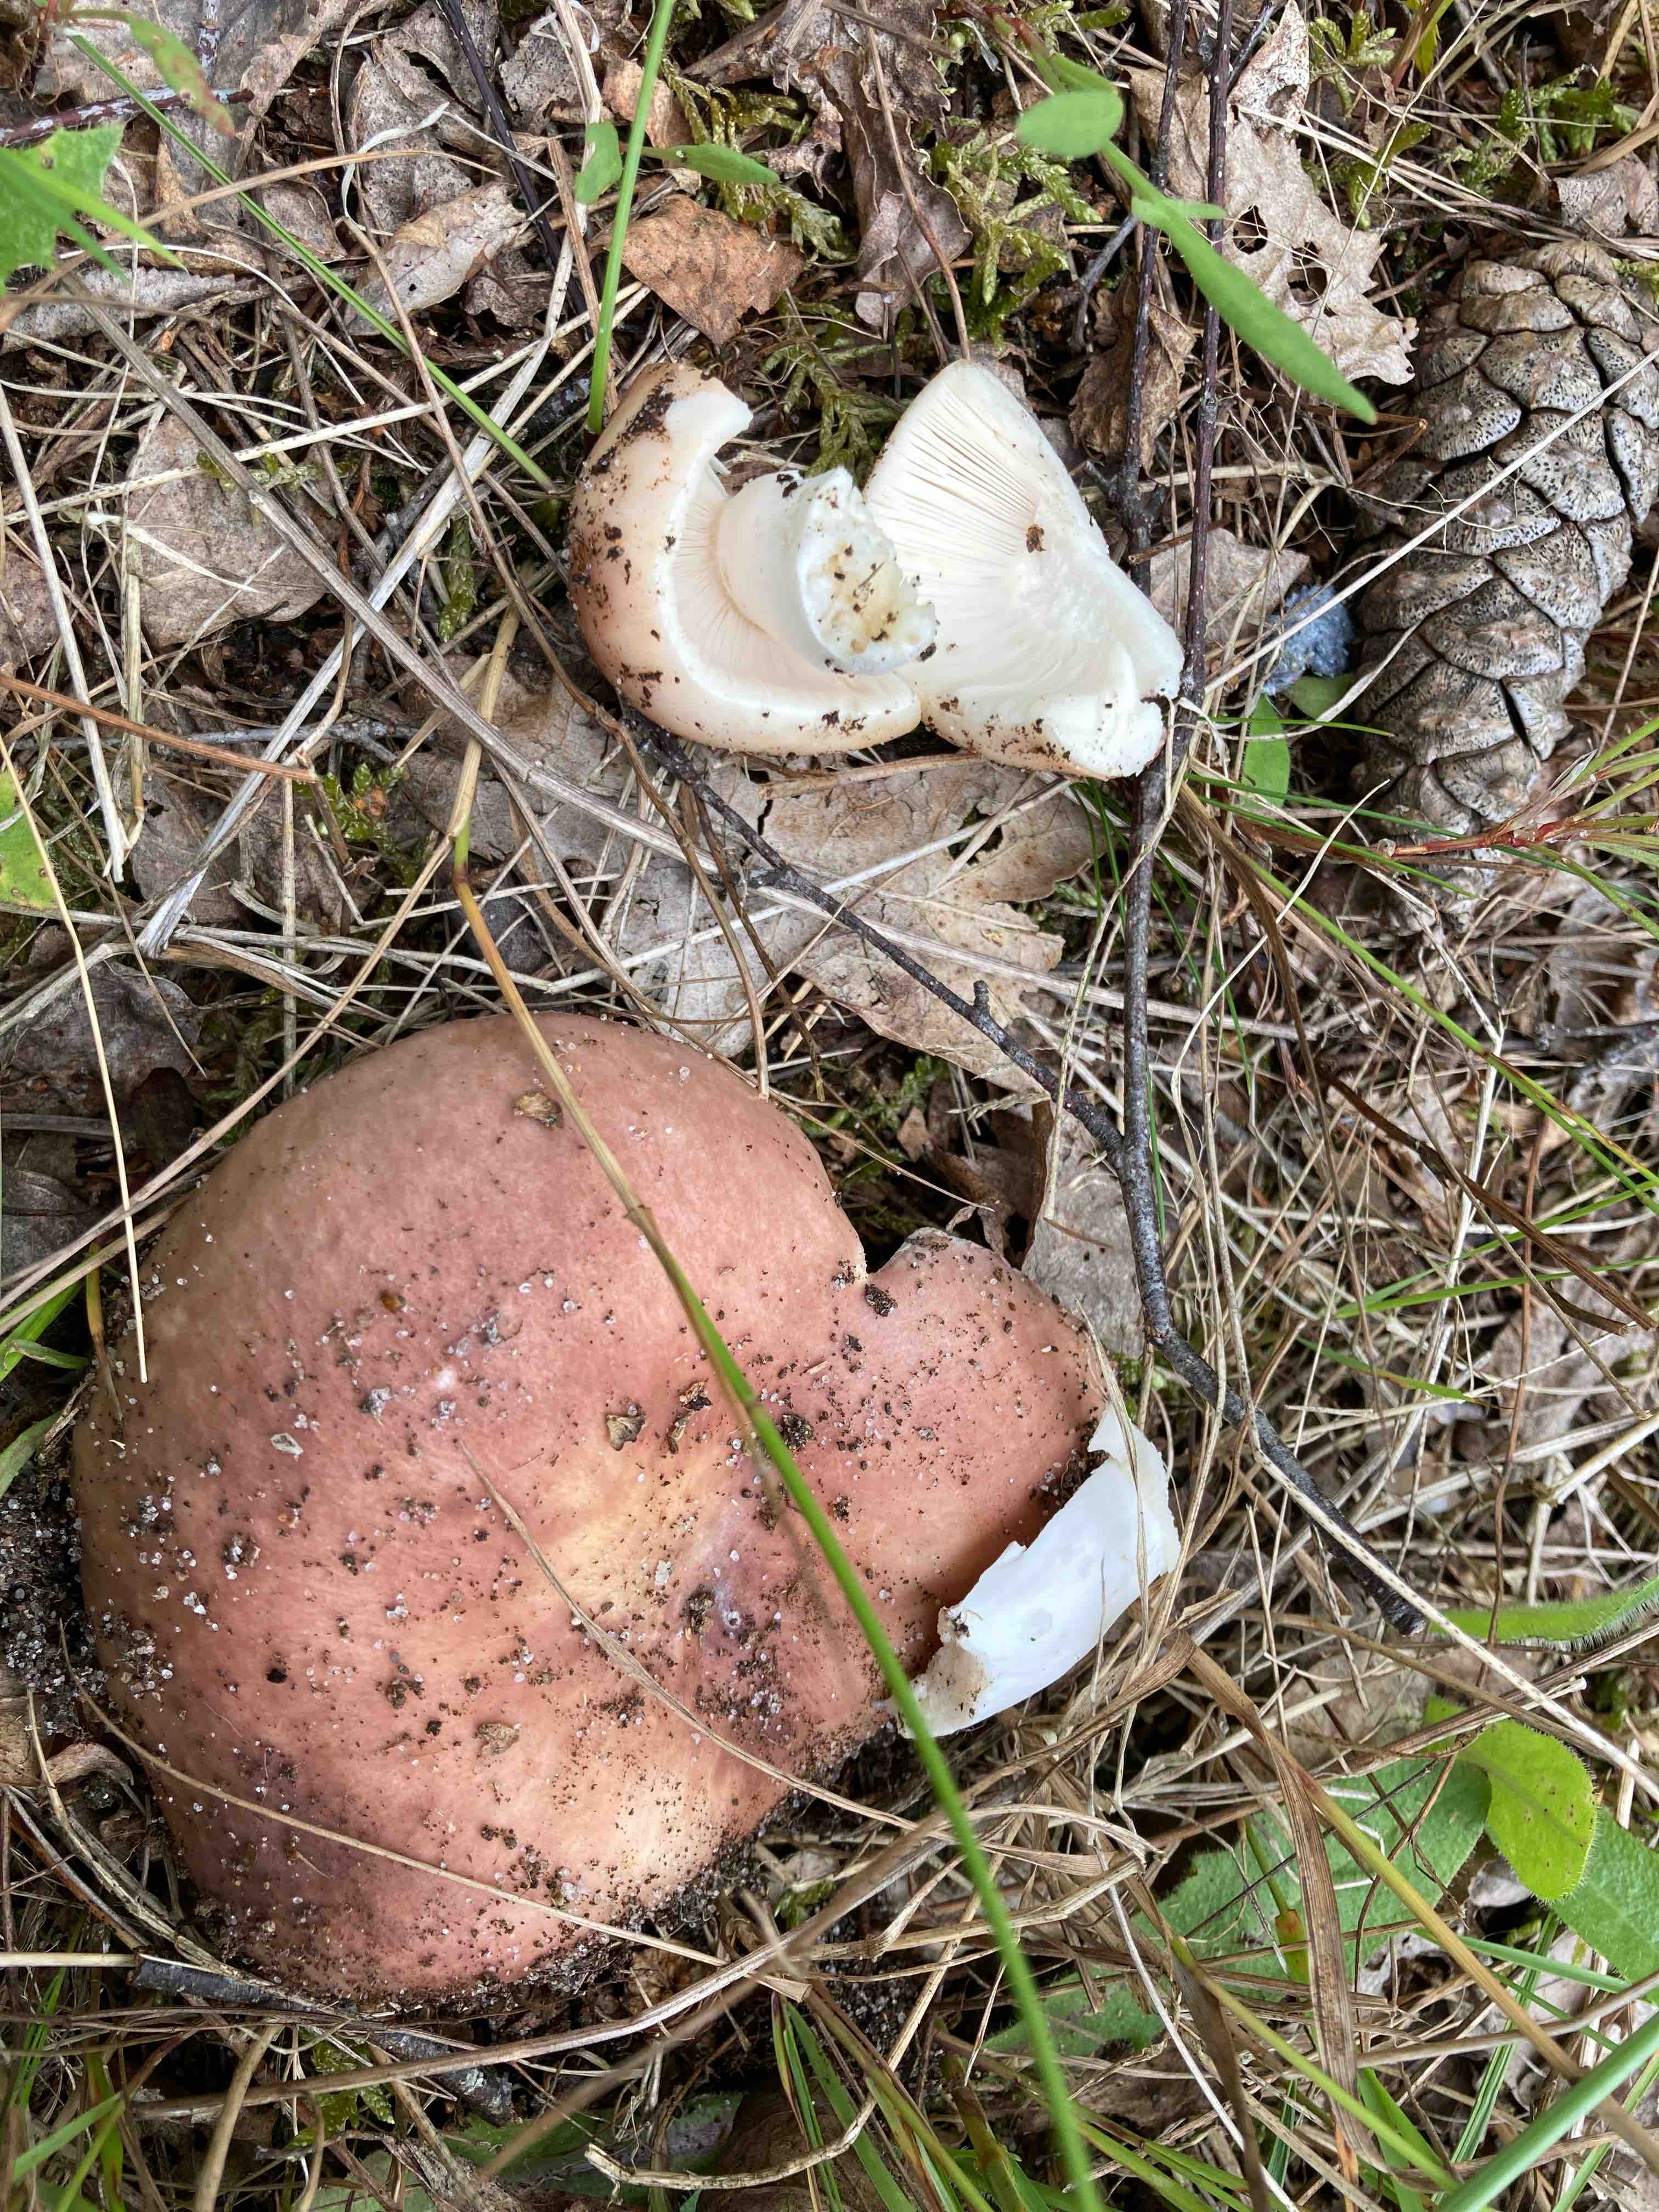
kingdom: Fungi
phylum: Basidiomycota
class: Agaricomycetes
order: Russulales
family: Russulaceae
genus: Russula
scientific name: Russula vesca
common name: spiselig skørhat
